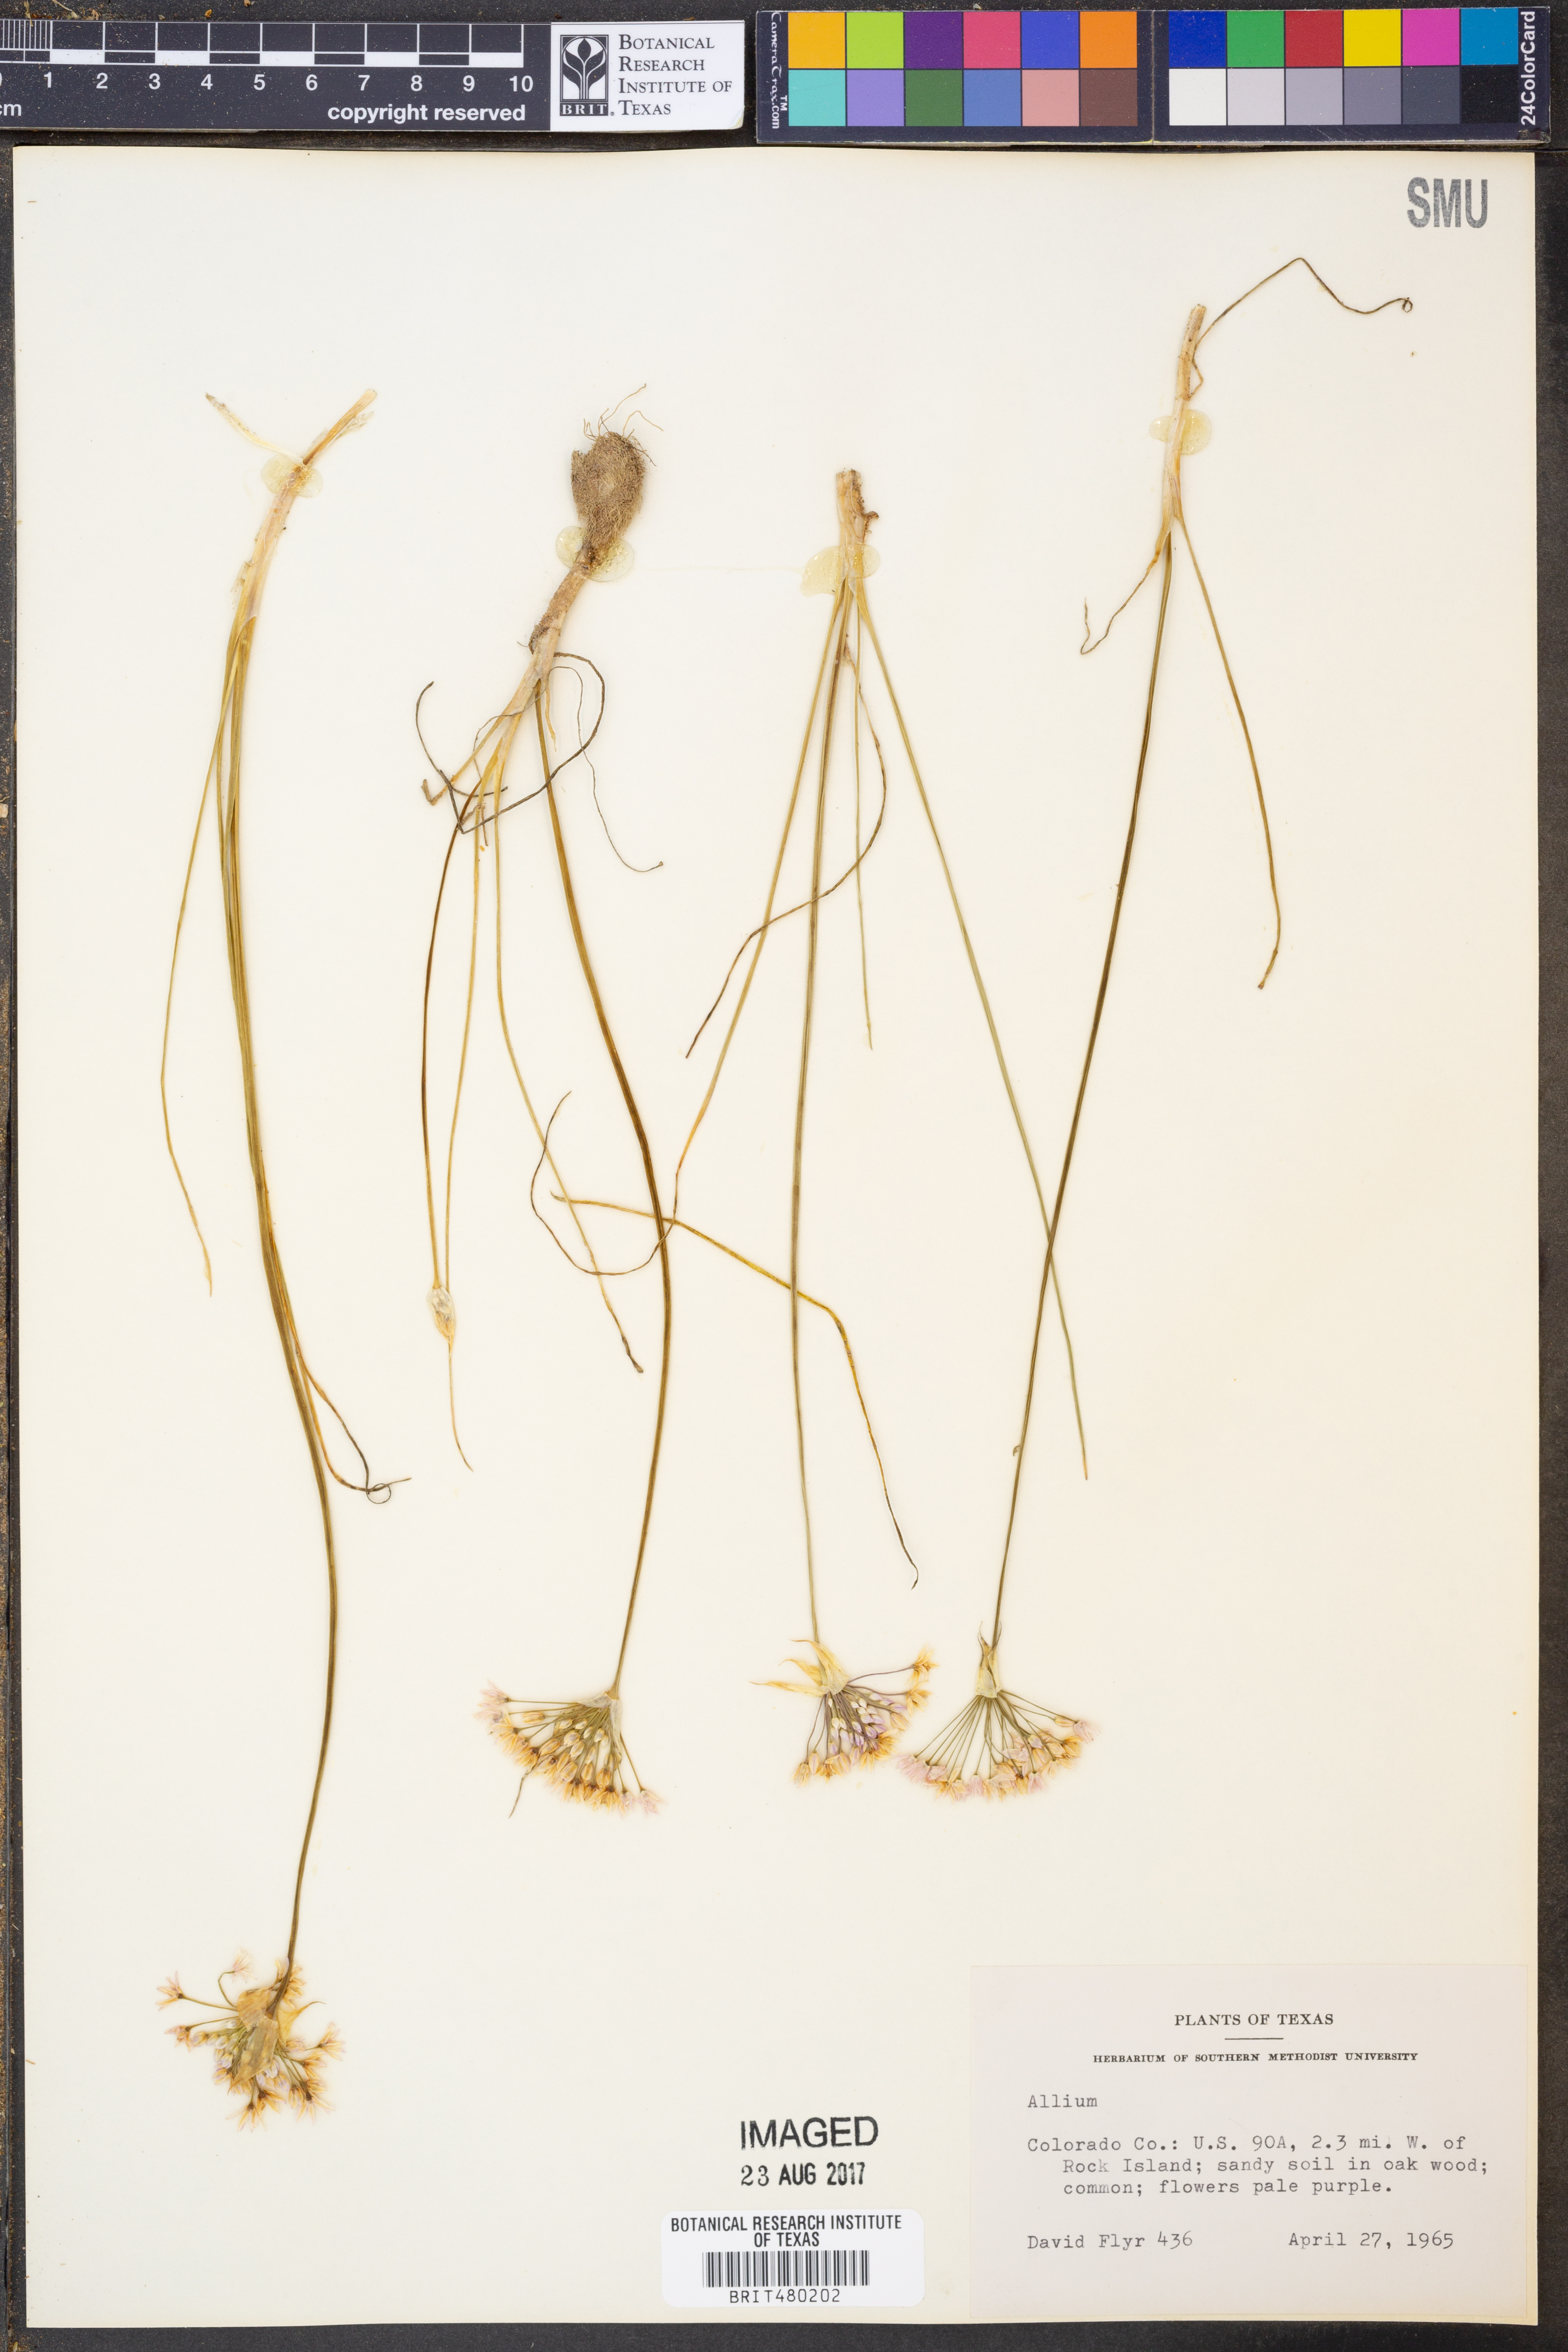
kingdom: Plantae
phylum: Tracheophyta
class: Liliopsida
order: Asparagales
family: Amaryllidaceae
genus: Allium
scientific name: Allium
